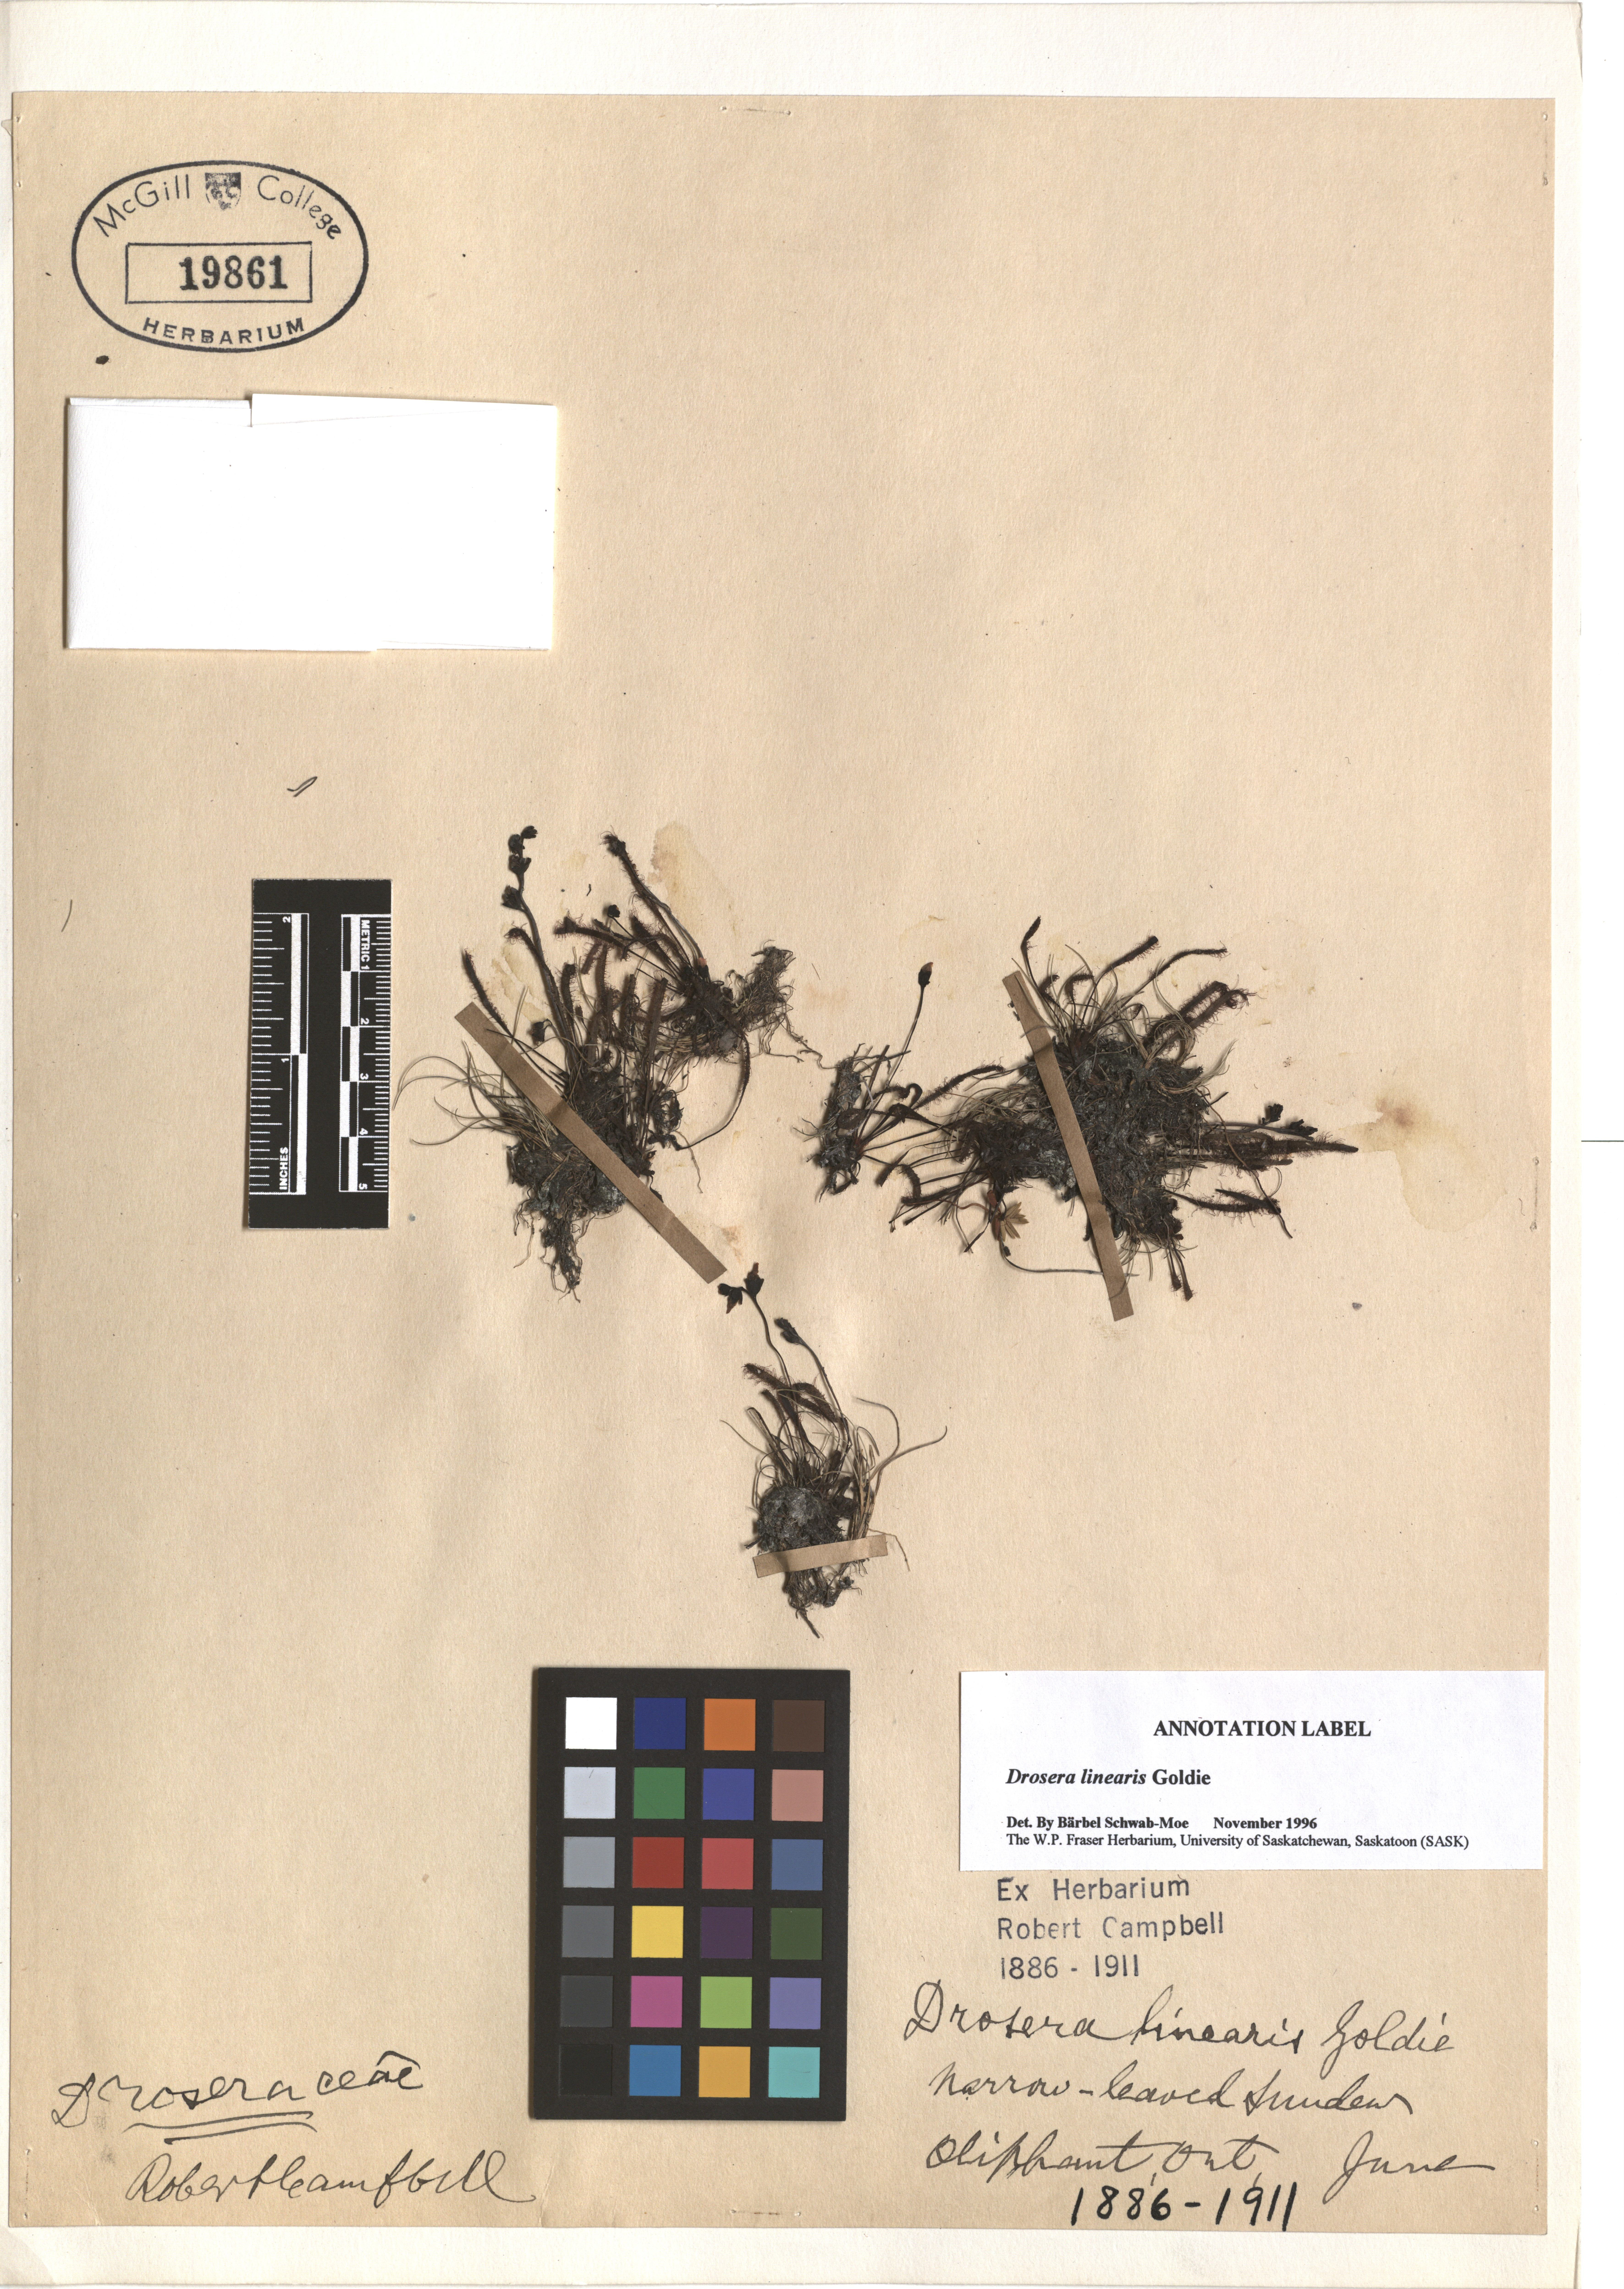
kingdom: Plantae
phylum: Tracheophyta
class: Magnoliopsida
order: Caryophyllales
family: Droseraceae
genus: Drosera
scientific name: Drosera linearis
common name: Linear-leaved sundew
